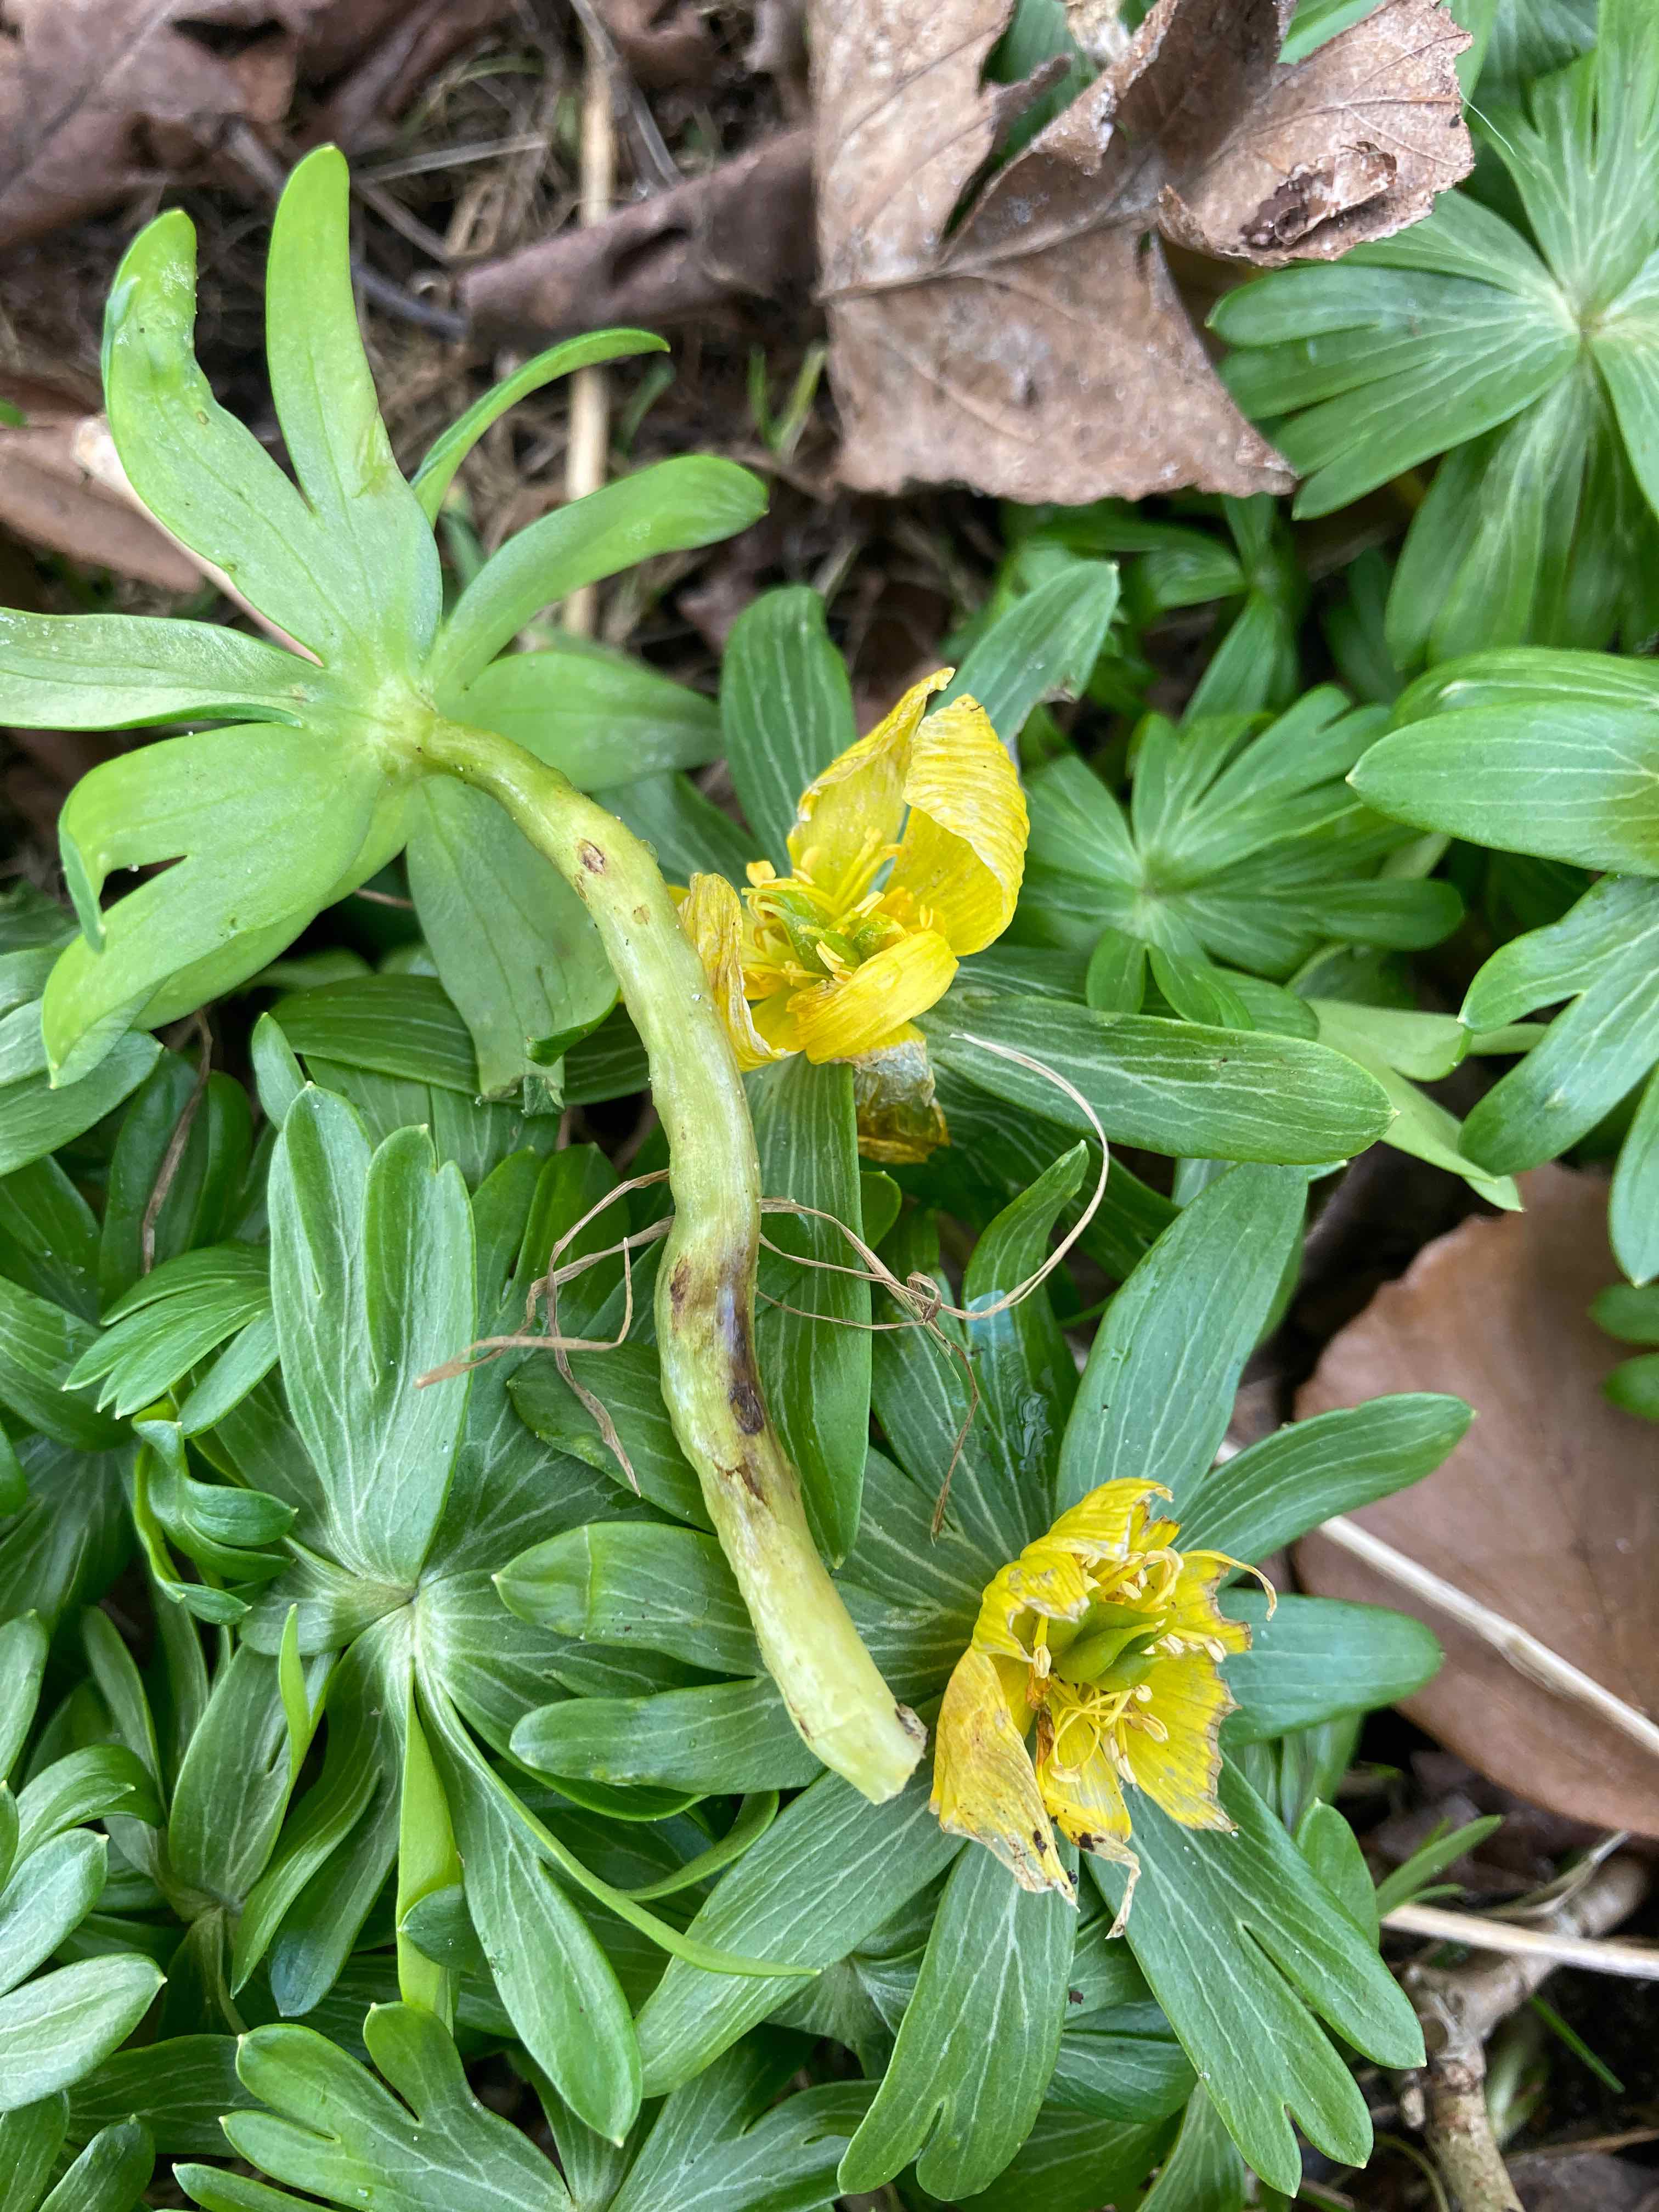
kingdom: Fungi
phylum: Basidiomycota
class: Ustilaginomycetes
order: Urocystidales
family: Urocystidaceae
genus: Urocystis
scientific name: Urocystis eranthidis
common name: erantis-brand
